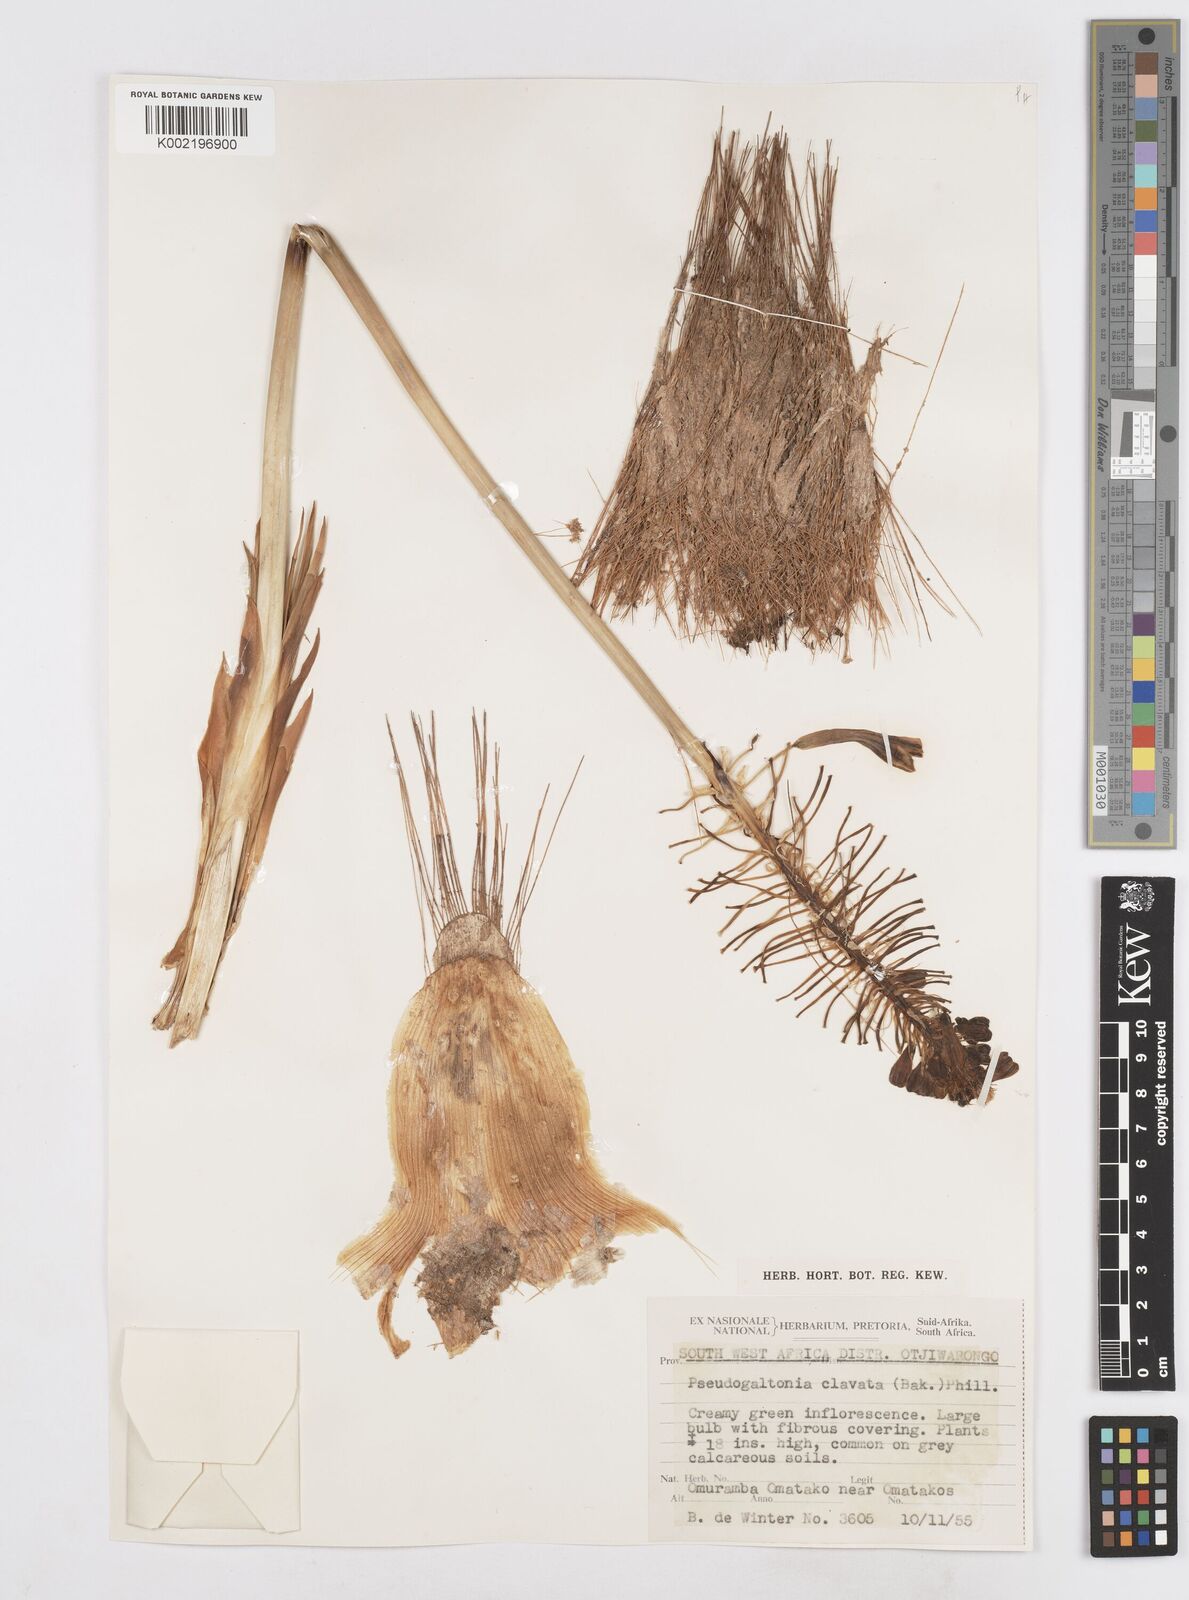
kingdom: Plantae
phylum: Tracheophyta
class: Liliopsida
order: Asparagales
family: Asparagaceae
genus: Pseudogaltonia
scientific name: Pseudogaltonia clavata
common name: South west african slangkop
